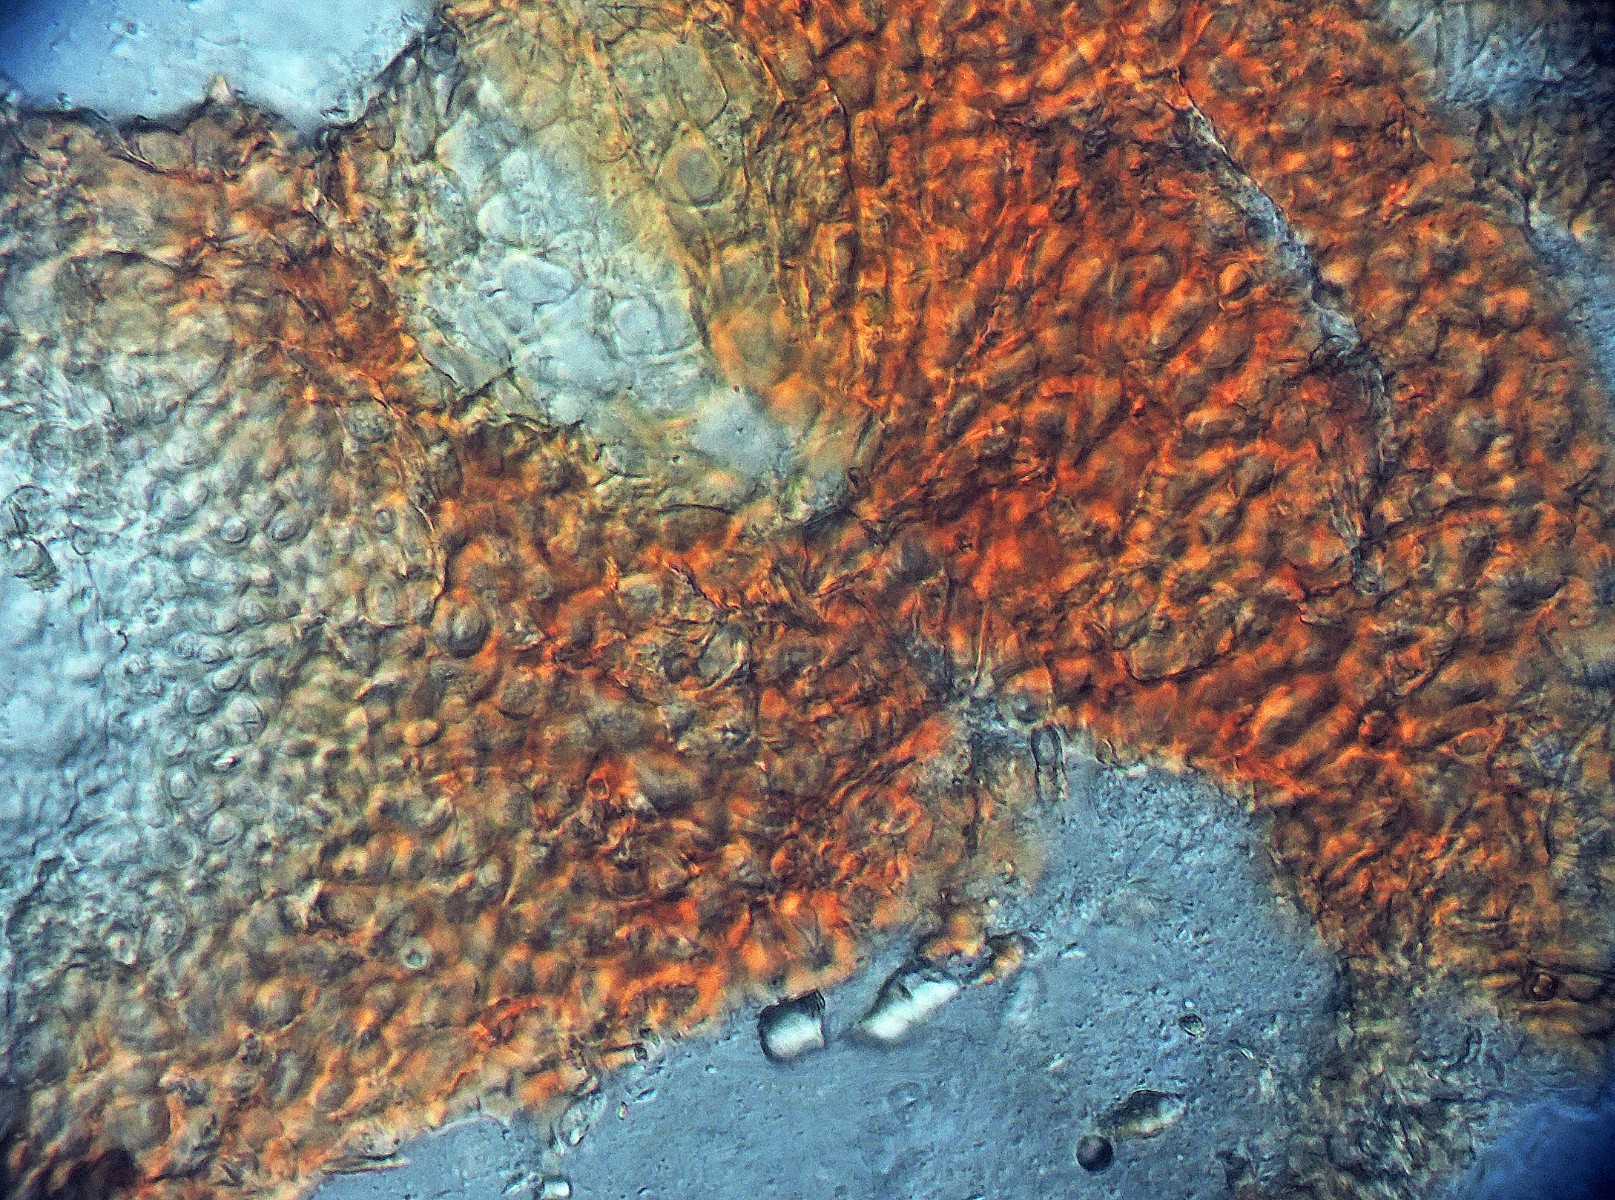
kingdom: Fungi
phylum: Ascomycota
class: Sordariomycetes
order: Hypocreales
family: Nectriaceae
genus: Fusarium
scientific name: Fusarium cicatricum
